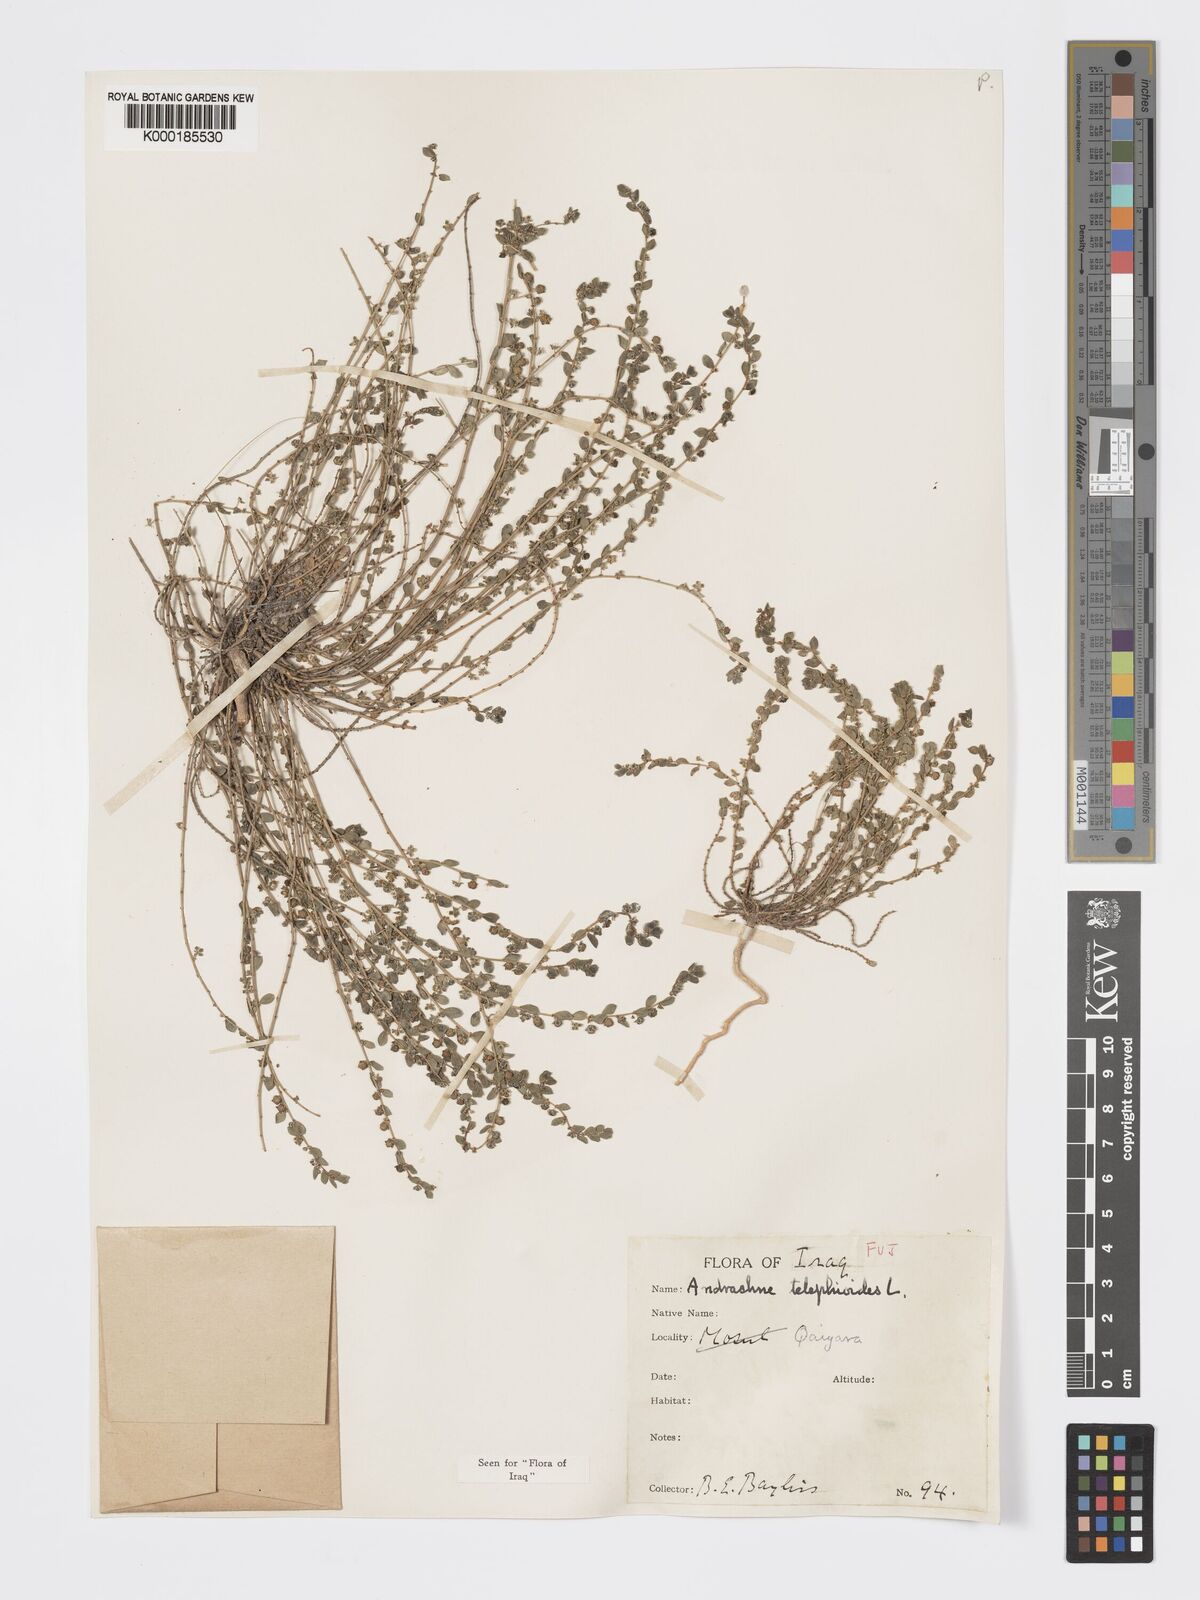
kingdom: Plantae
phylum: Tracheophyta
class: Magnoliopsida
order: Malpighiales
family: Phyllanthaceae
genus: Andrachne
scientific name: Andrachne telephioides
